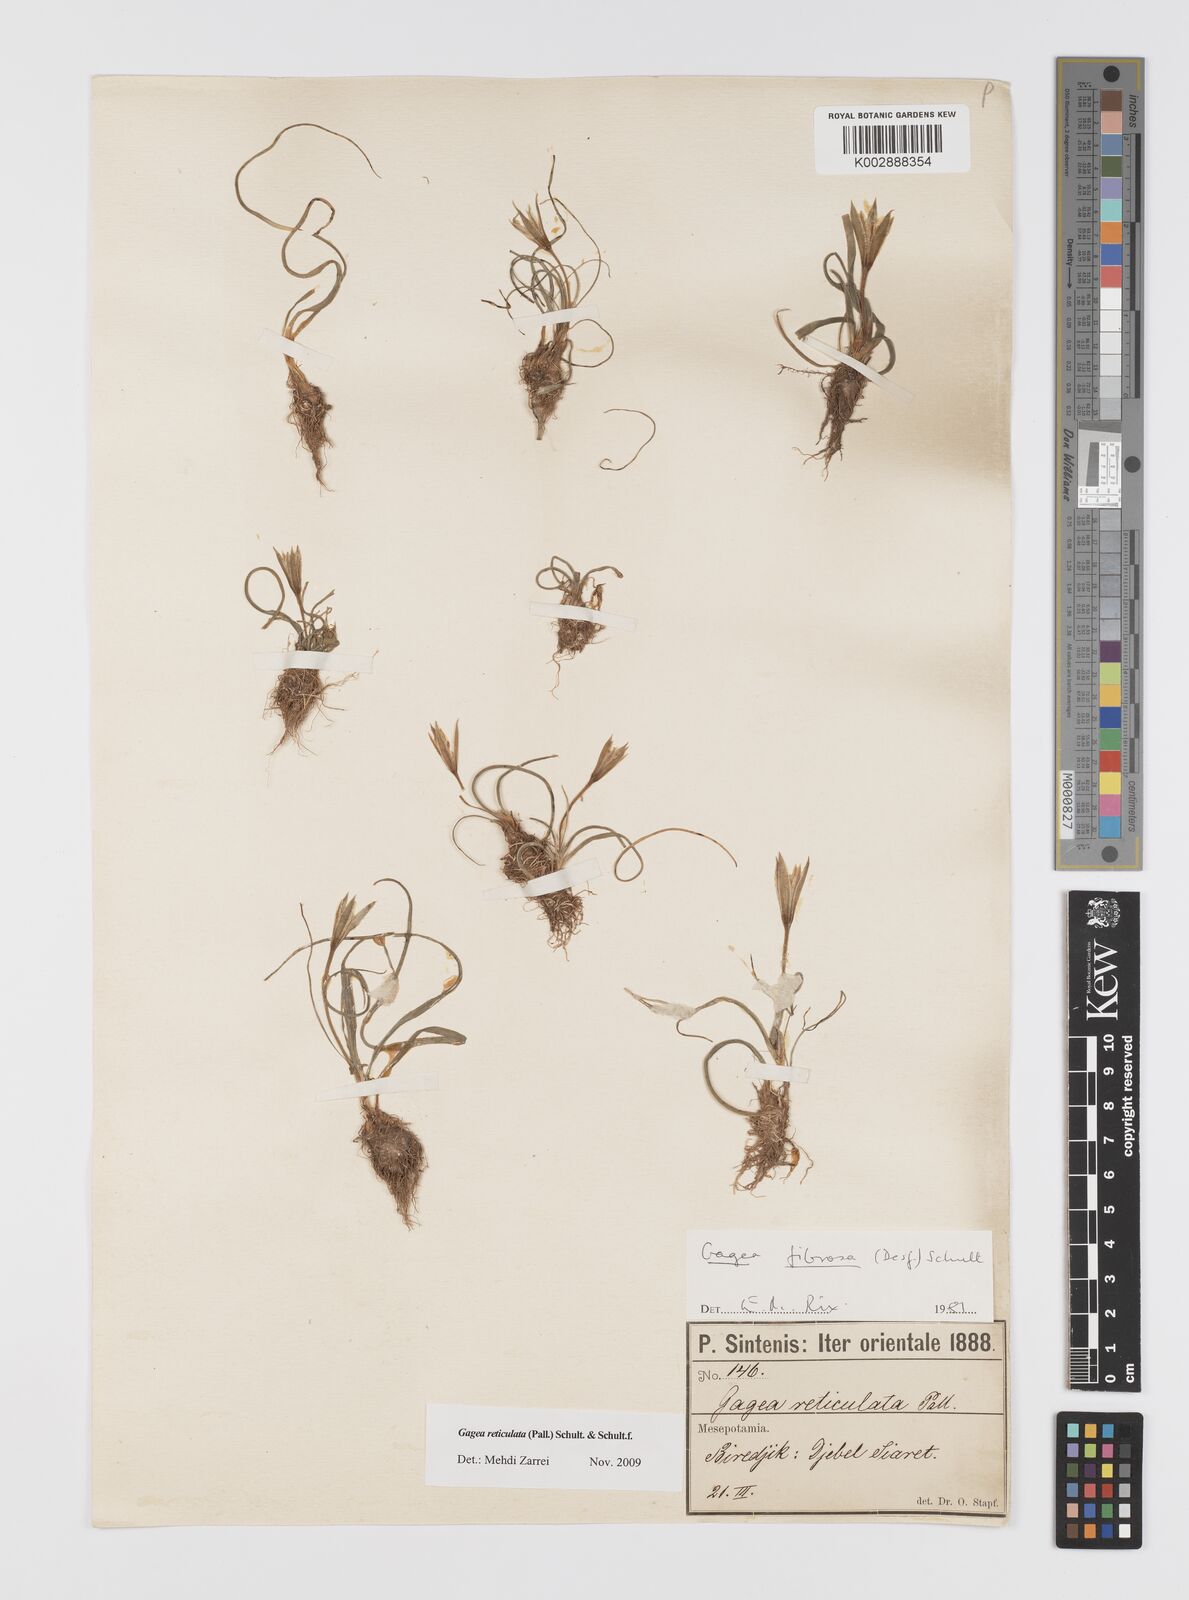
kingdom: Plantae
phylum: Tracheophyta
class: Liliopsida
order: Liliales
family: Liliaceae
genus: Gagea
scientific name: Gagea reticulata
